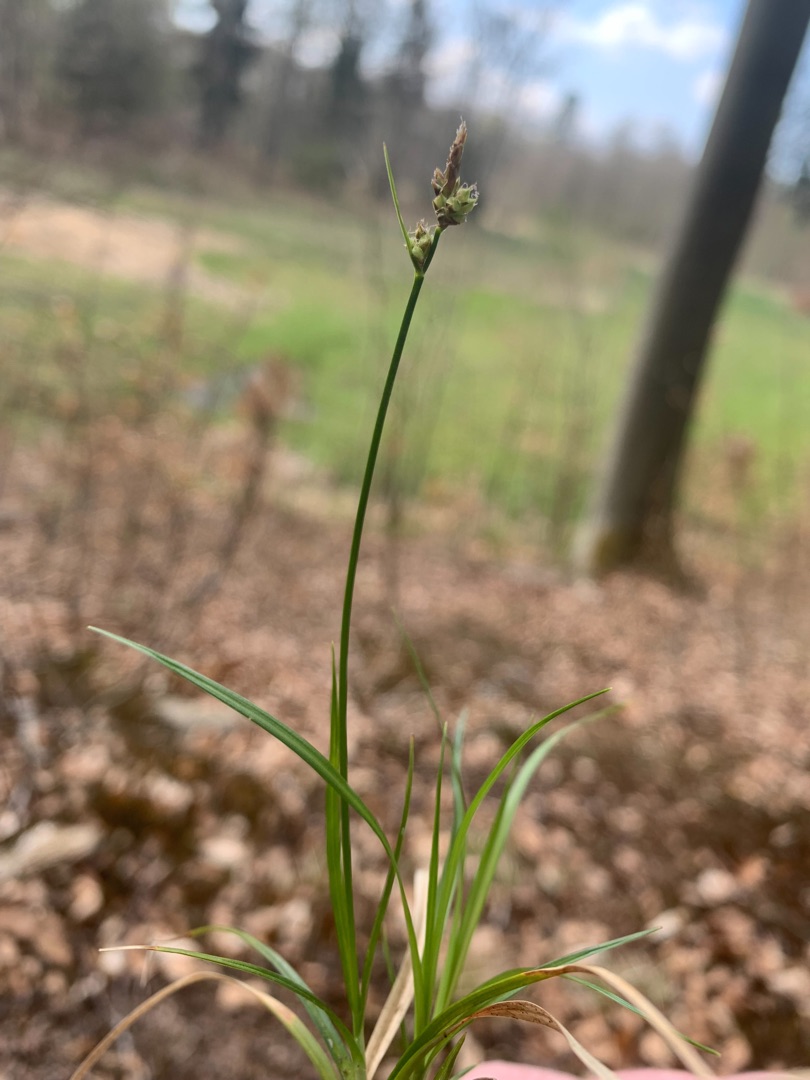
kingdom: Plantae
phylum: Tracheophyta
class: Liliopsida
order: Poales
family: Cyperaceae
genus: Carex
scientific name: Carex pilulifera
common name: Pille-star
